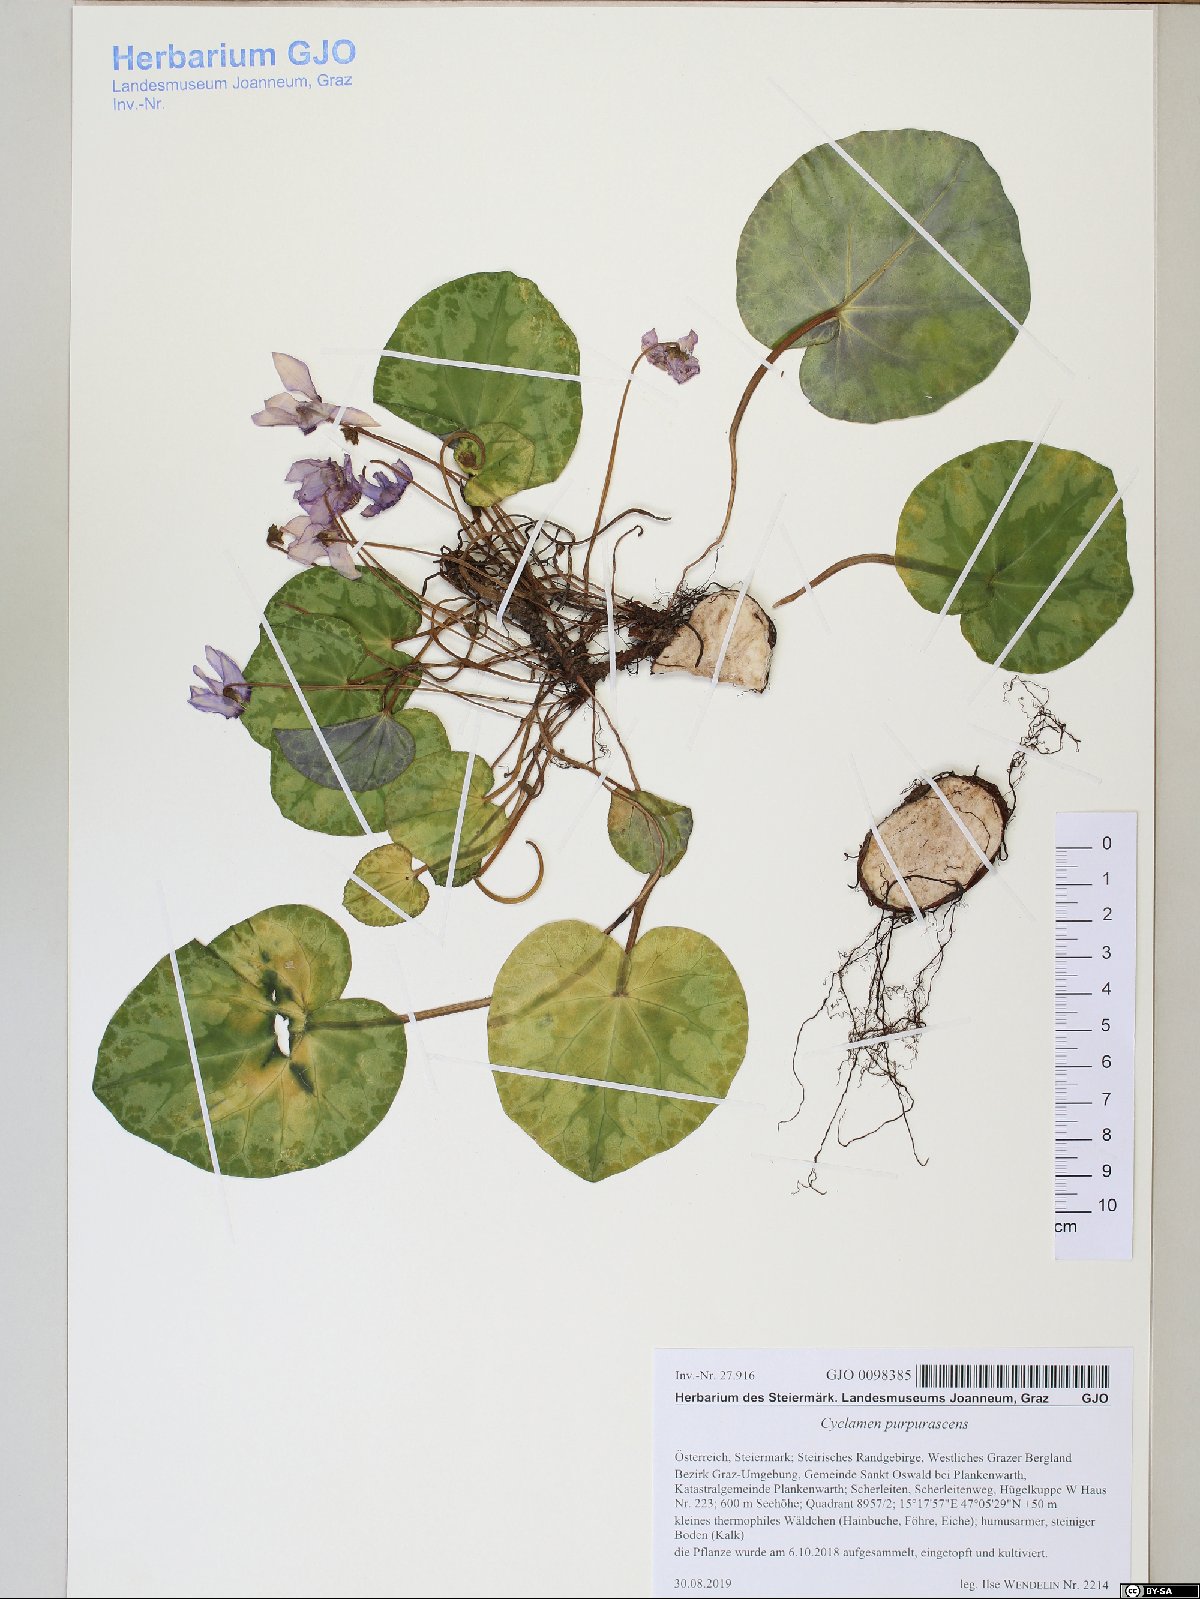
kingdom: Plantae
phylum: Tracheophyta
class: Magnoliopsida
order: Ericales
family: Primulaceae
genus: Cyclamen
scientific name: Cyclamen purpurascens
